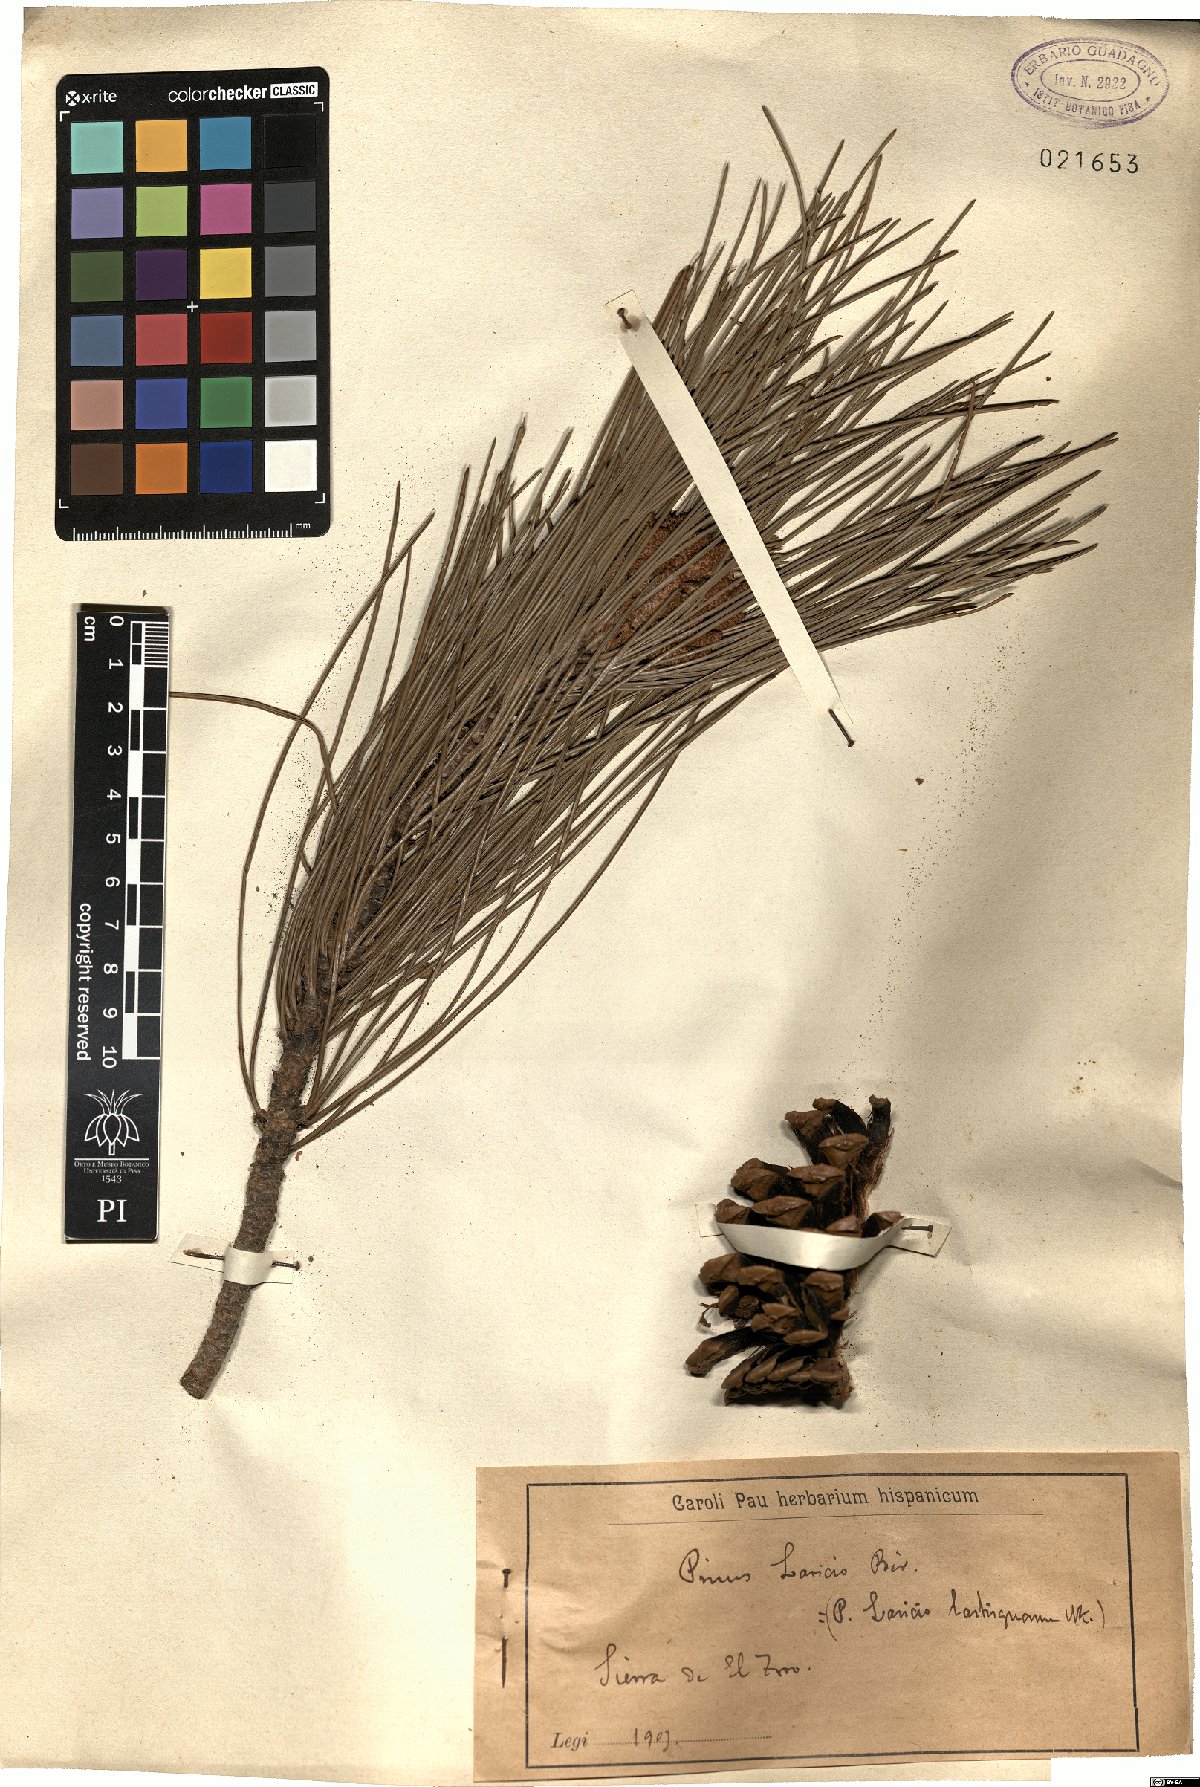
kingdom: Plantae
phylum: Tracheophyta
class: Pinopsida
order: Pinales
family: Pinaceae
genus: Pinus
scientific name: Pinus nigra
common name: Austrian pine
